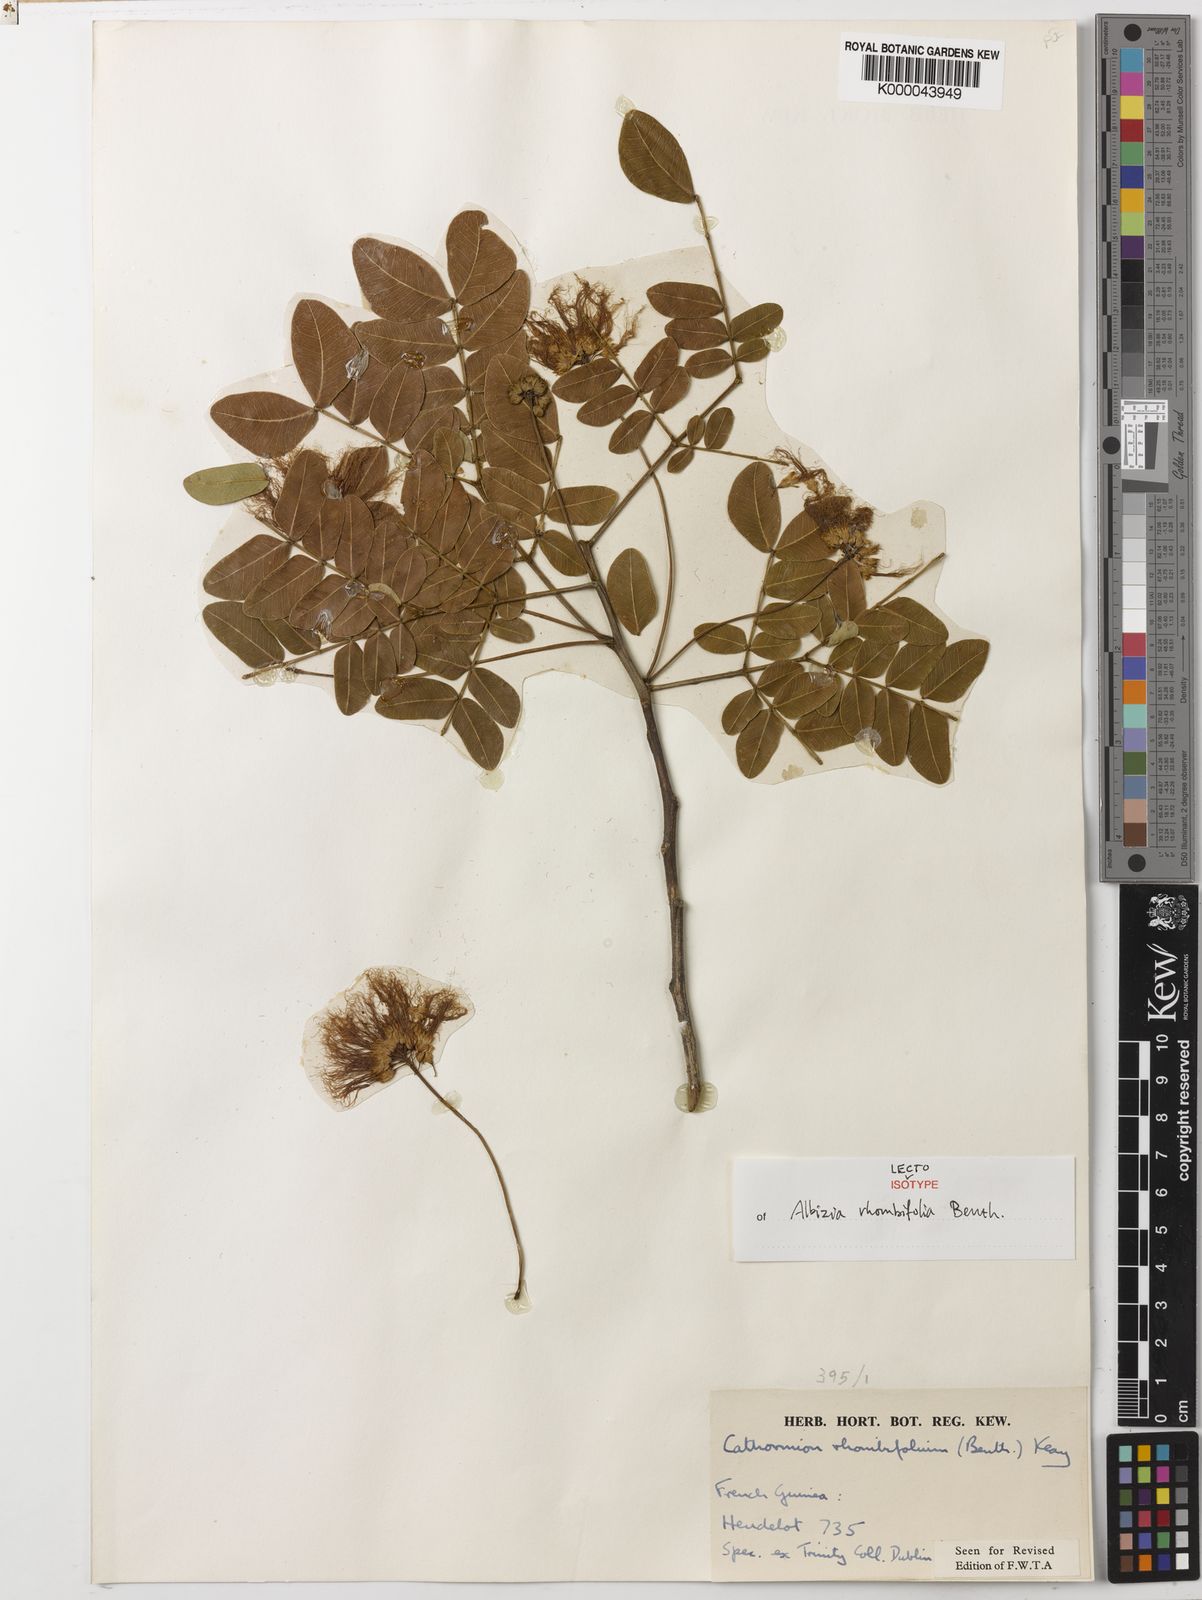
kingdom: Plantae
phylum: Tracheophyta
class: Magnoliopsida
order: Fabales
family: Fabaceae
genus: Albizia
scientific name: Albizia rhombifolia
